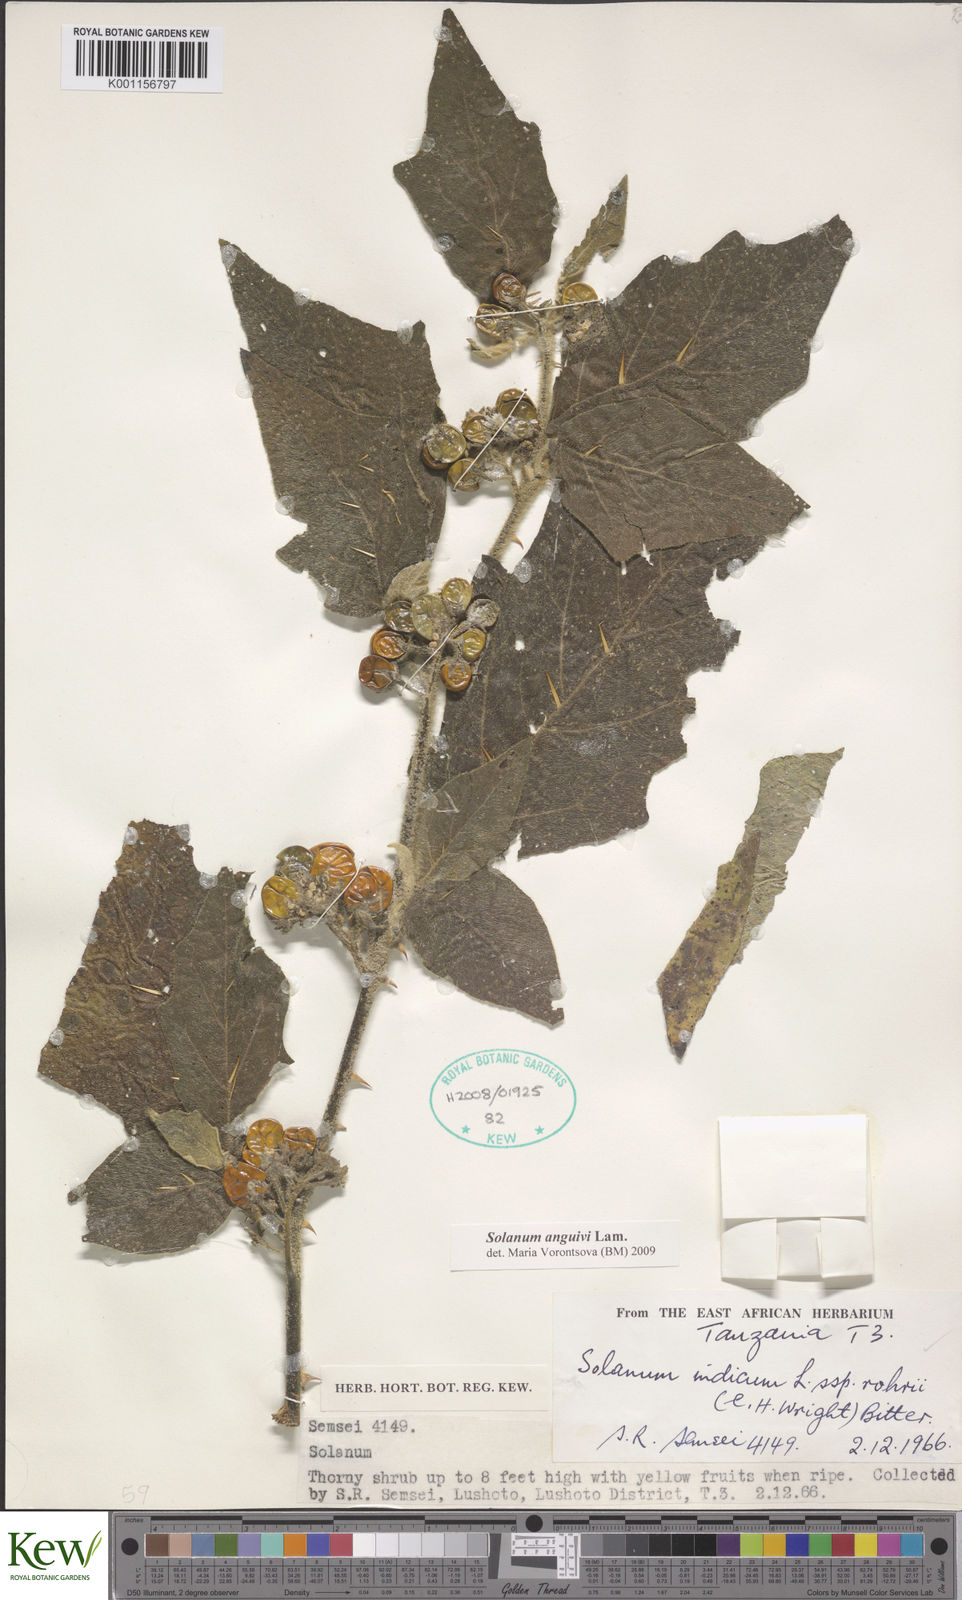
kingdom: Plantae
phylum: Tracheophyta
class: Magnoliopsida
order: Solanales
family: Solanaceae
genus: Solanum
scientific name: Solanum anguivi
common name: Forest bitterberry
